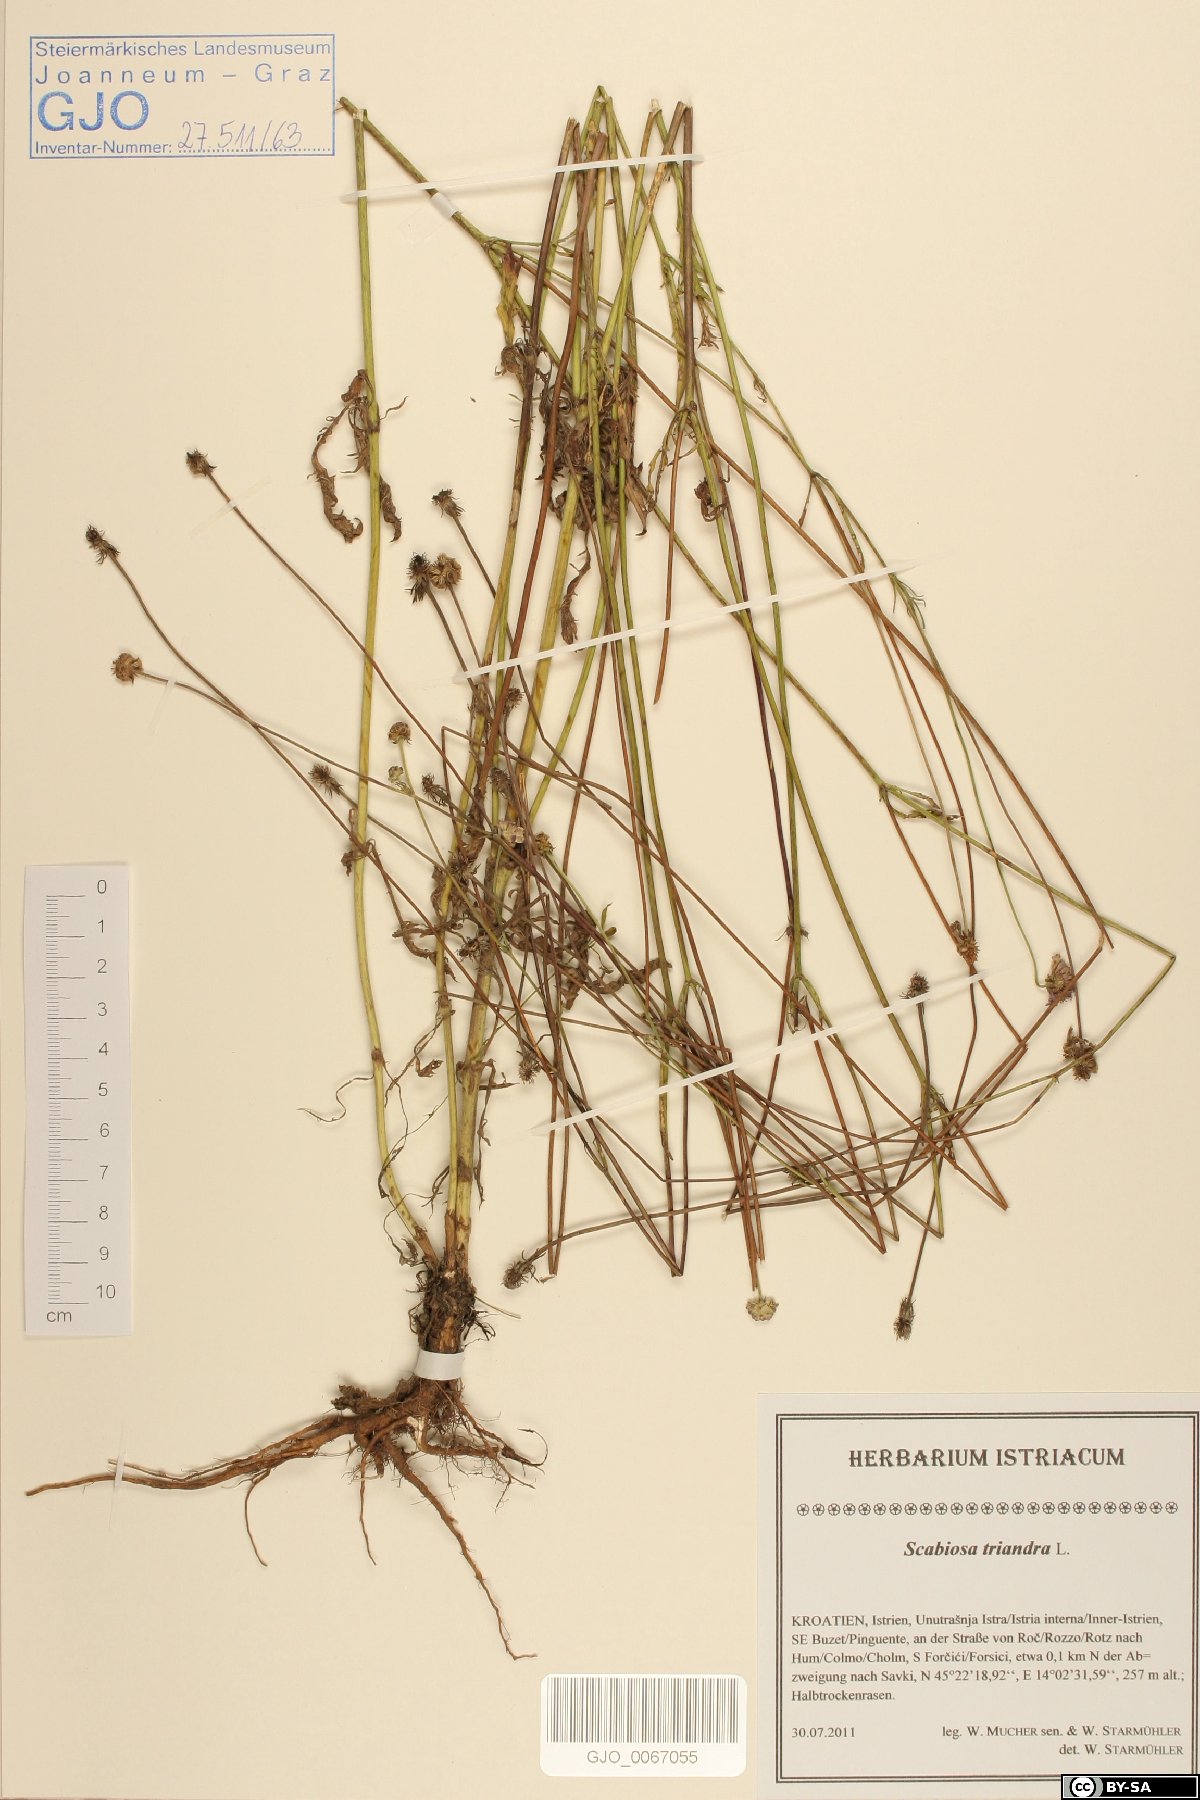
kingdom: Plantae
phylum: Tracheophyta
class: Magnoliopsida
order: Dipsacales
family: Caprifoliaceae
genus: Scabiosa
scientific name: Scabiosa triandra
